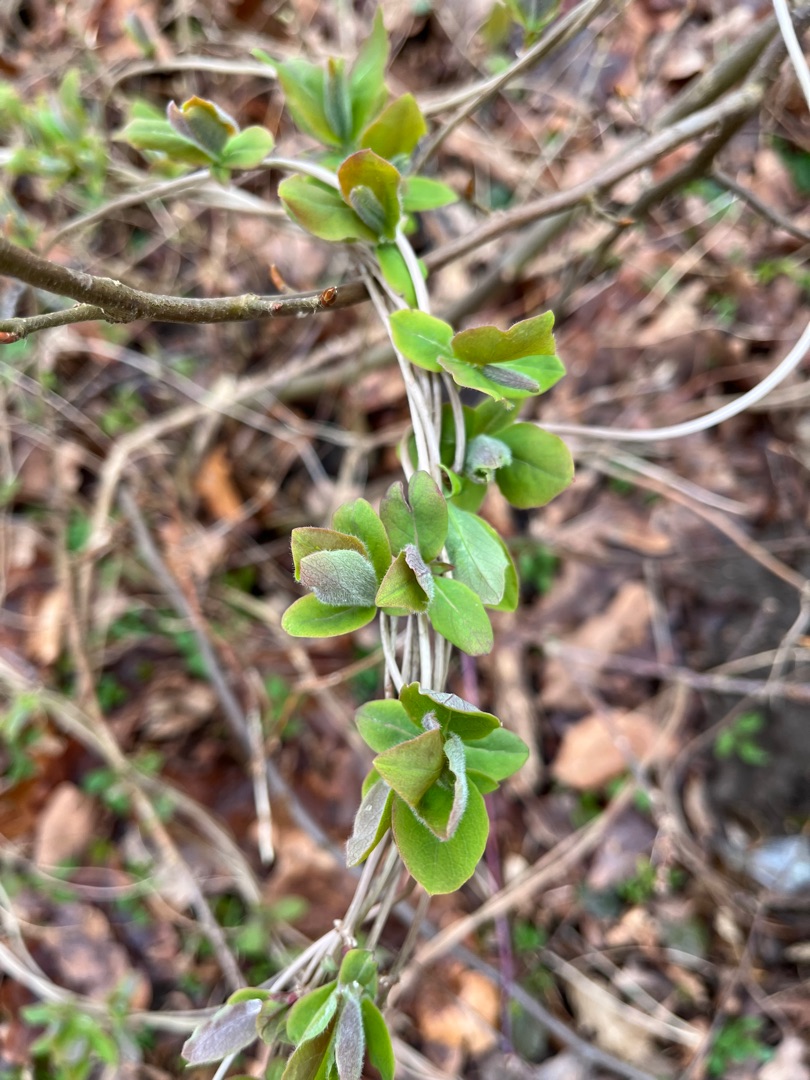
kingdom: Plantae
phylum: Tracheophyta
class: Magnoliopsida
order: Dipsacales
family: Caprifoliaceae
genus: Lonicera
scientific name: Lonicera periclymenum
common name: Almindelig gedeblad
